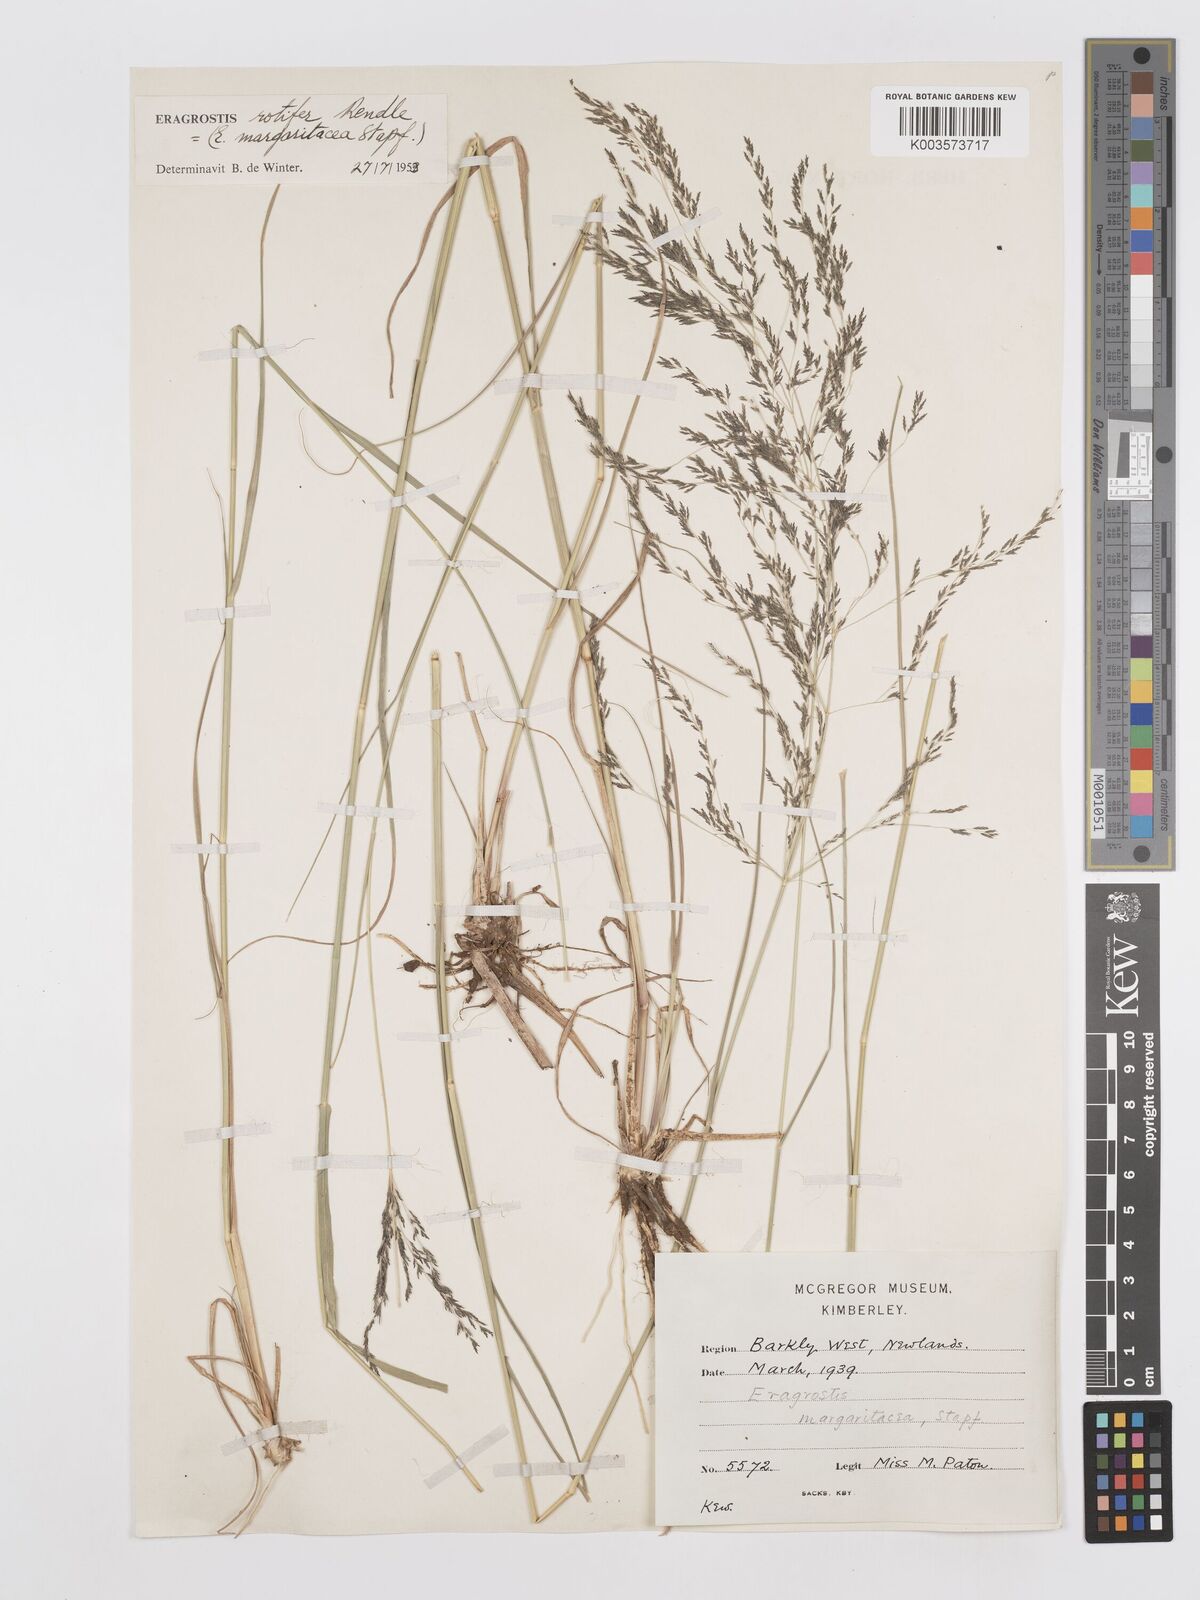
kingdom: Plantae
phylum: Tracheophyta
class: Liliopsida
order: Poales
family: Poaceae
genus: Eragrostis
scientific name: Eragrostis rotifer
